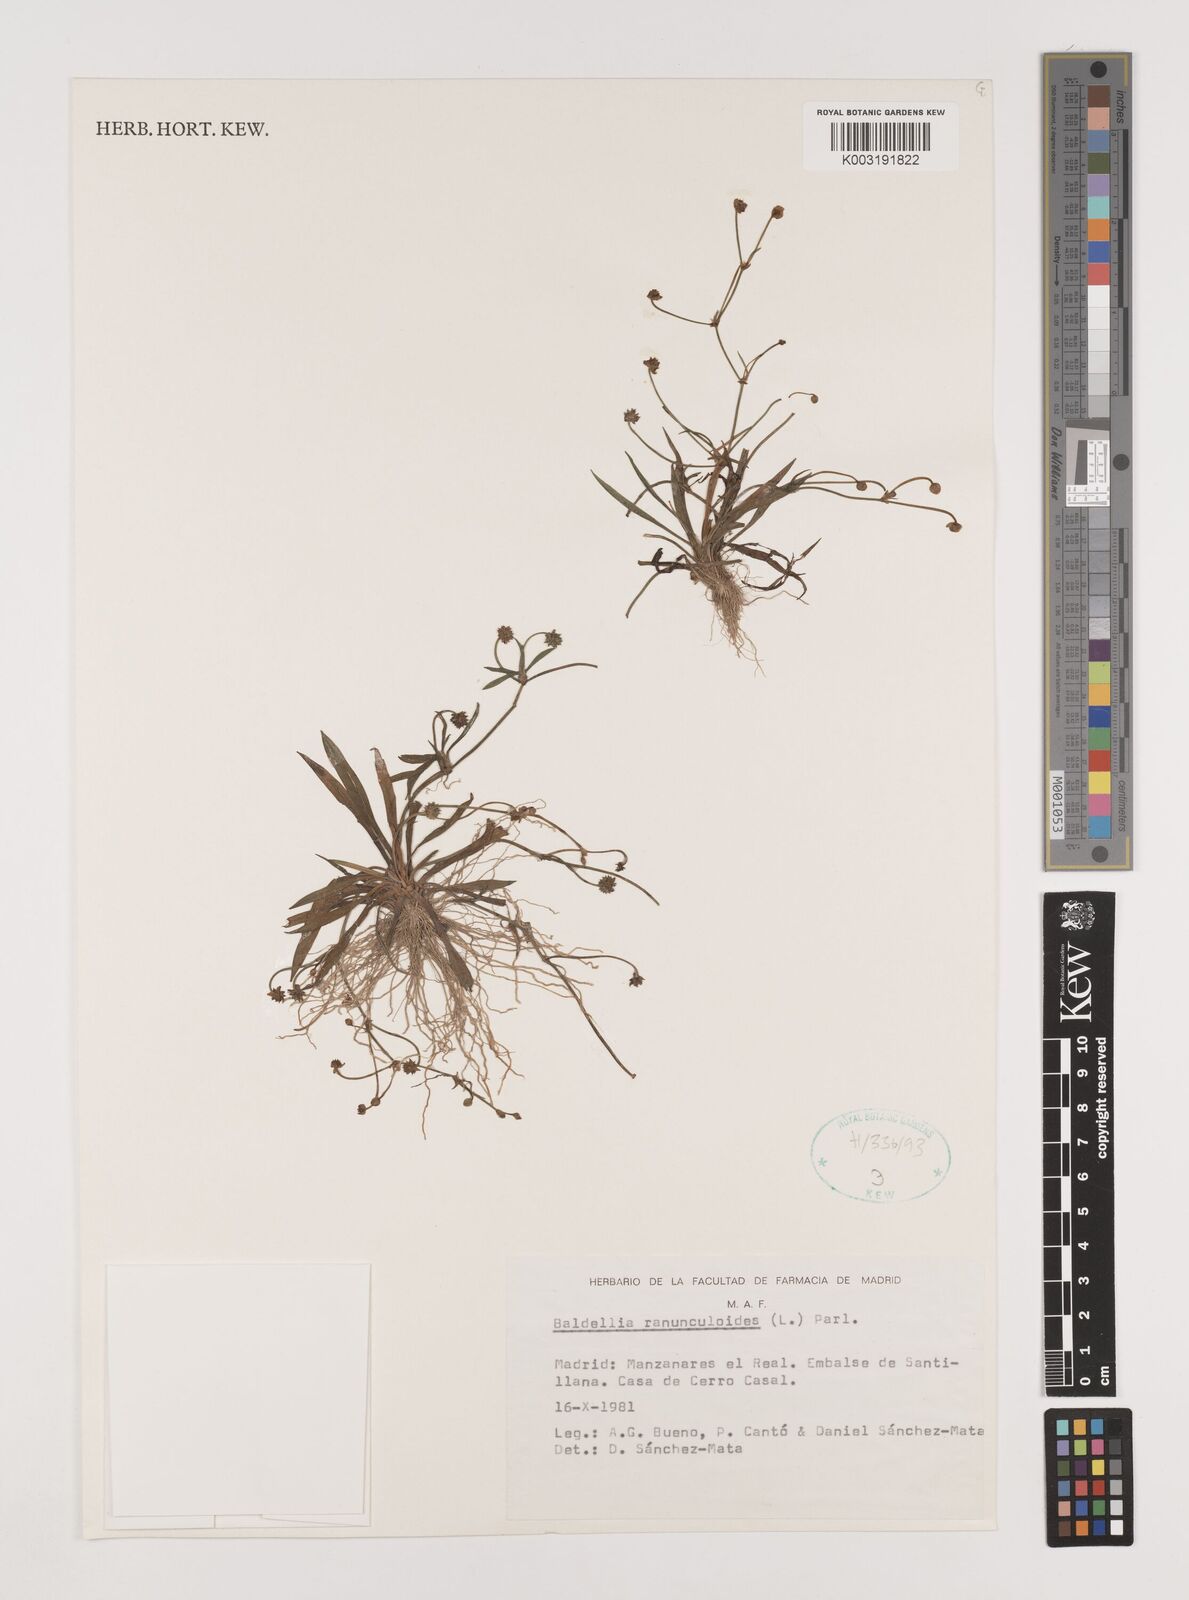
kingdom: Plantae
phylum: Tracheophyta
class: Liliopsida
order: Alismatales
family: Alismataceae
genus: Baldellia
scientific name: Baldellia ranunculoides
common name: Lesser water-plantain
